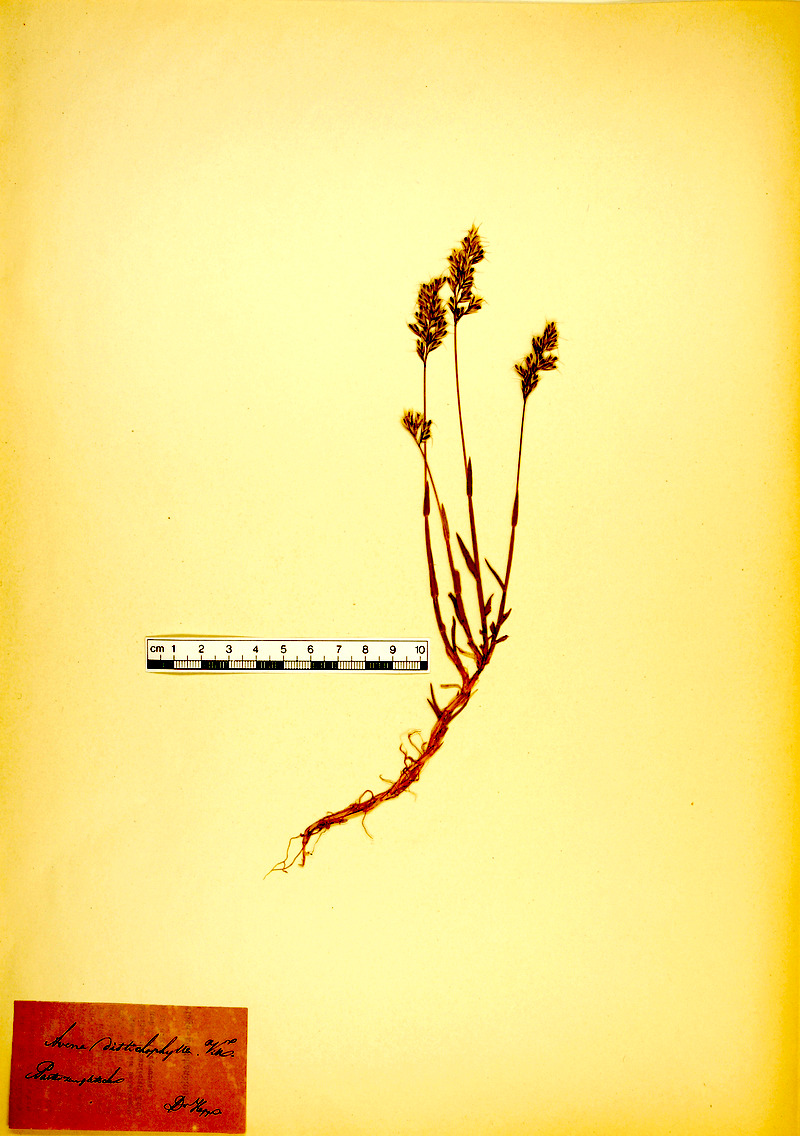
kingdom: Plantae
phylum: Tracheophyta
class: Liliopsida
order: Poales
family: Poaceae
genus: Acrospelion
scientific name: Acrospelion distichophyllum
